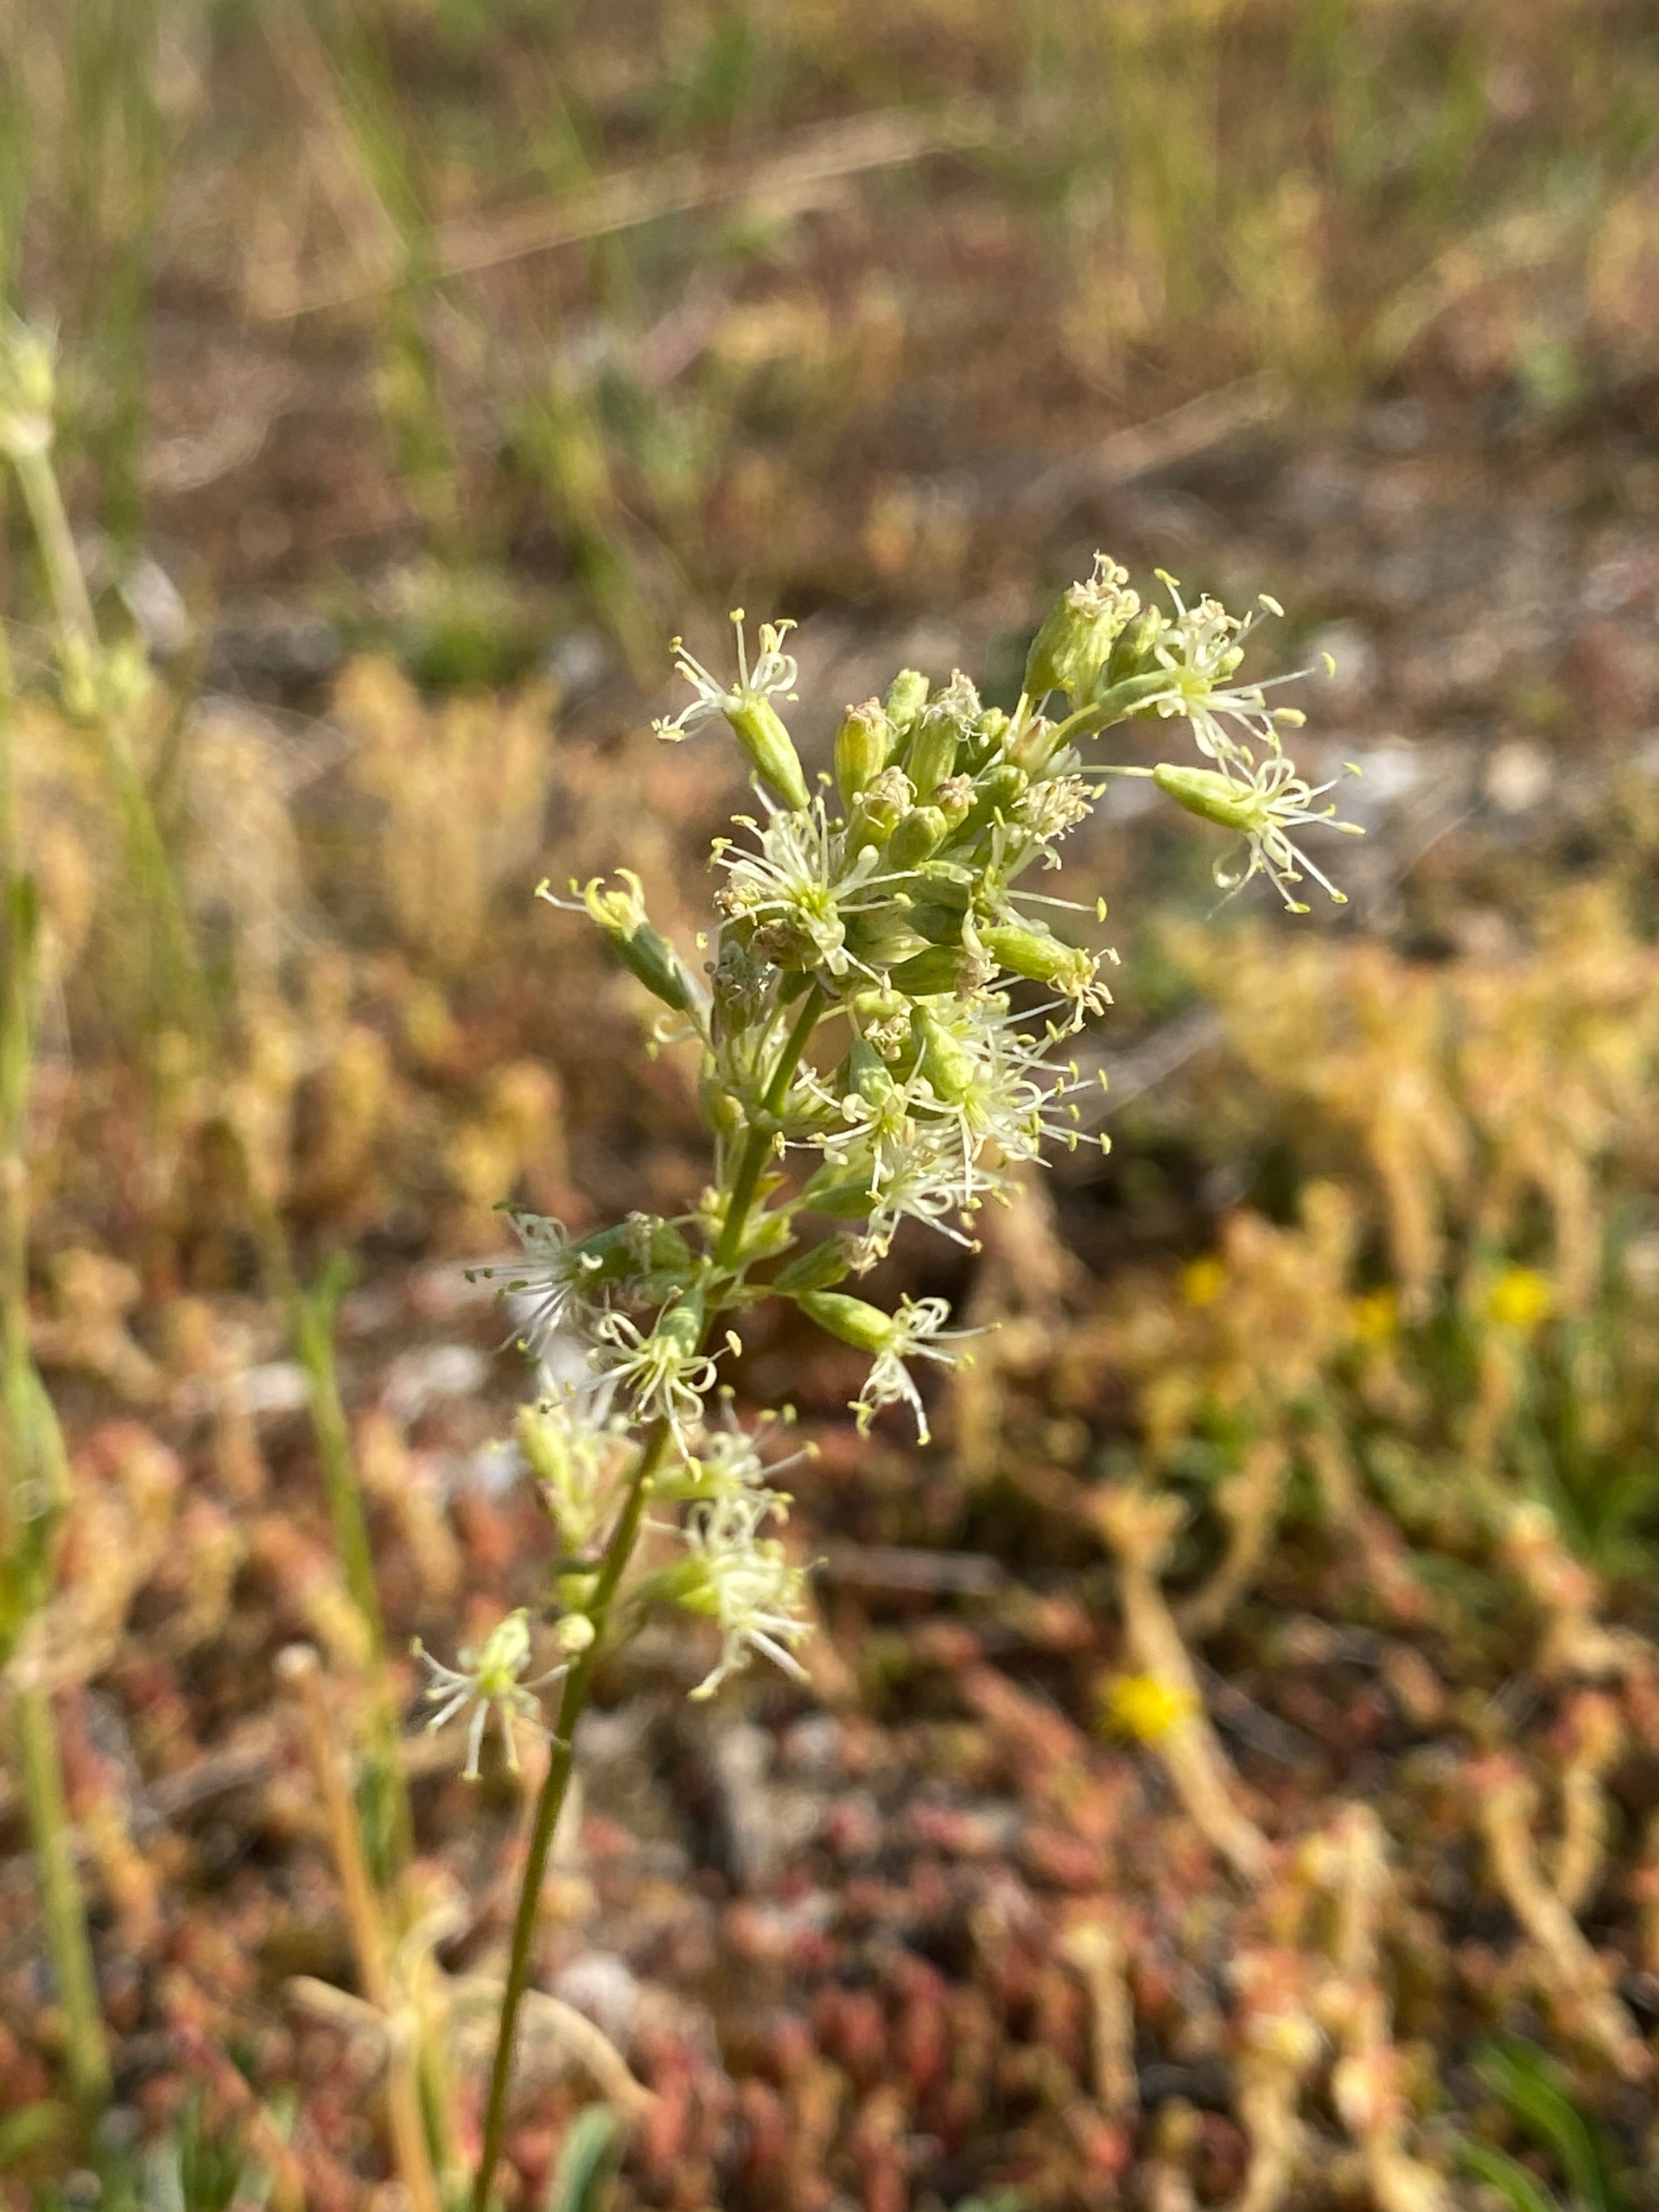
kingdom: Plantae
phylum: Tracheophyta
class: Magnoliopsida
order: Caryophyllales
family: Caryophyllaceae
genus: Silene
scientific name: Silene otites
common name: Klit-limurt
